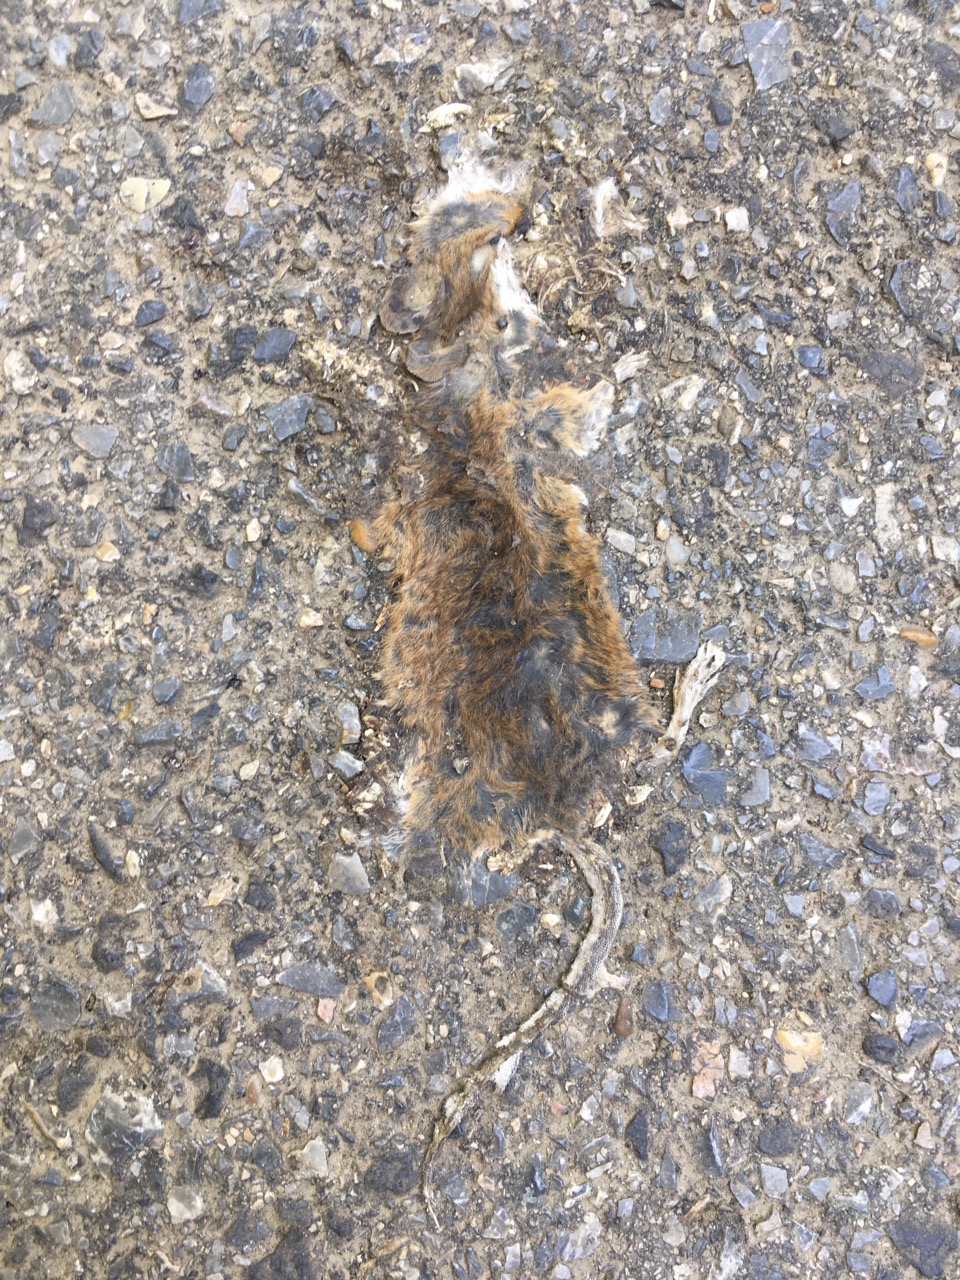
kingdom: Animalia
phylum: Chordata
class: Mammalia
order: Rodentia
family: Muridae
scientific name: Muridae
